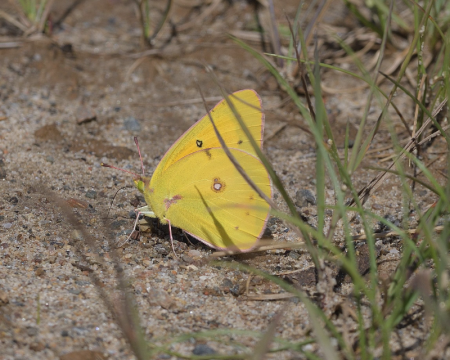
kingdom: Animalia
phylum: Arthropoda
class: Insecta
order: Lepidoptera
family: Pieridae
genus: Colias
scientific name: Colias eurytheme
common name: Orange Sulphur
